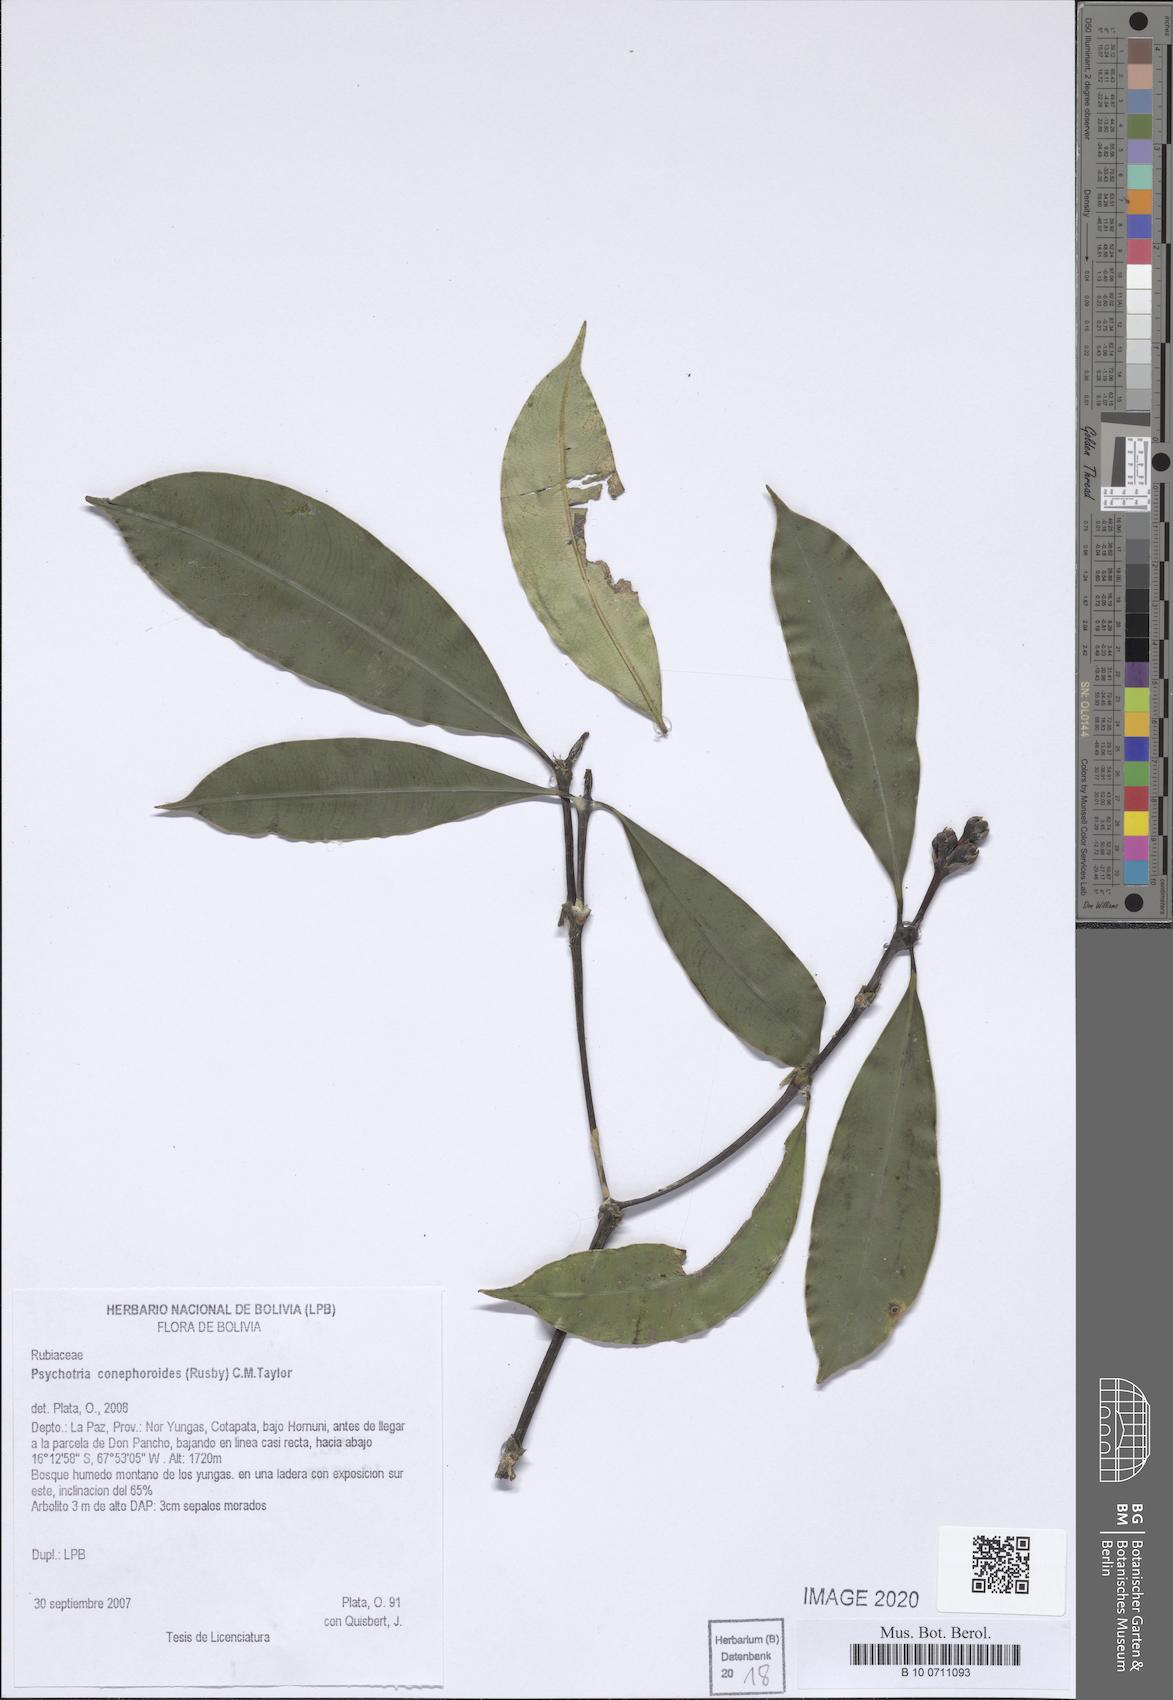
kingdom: Plantae
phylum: Tracheophyta
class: Magnoliopsida
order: Gentianales
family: Rubiaceae
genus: Palicourea
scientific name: Palicourea conephoroides
